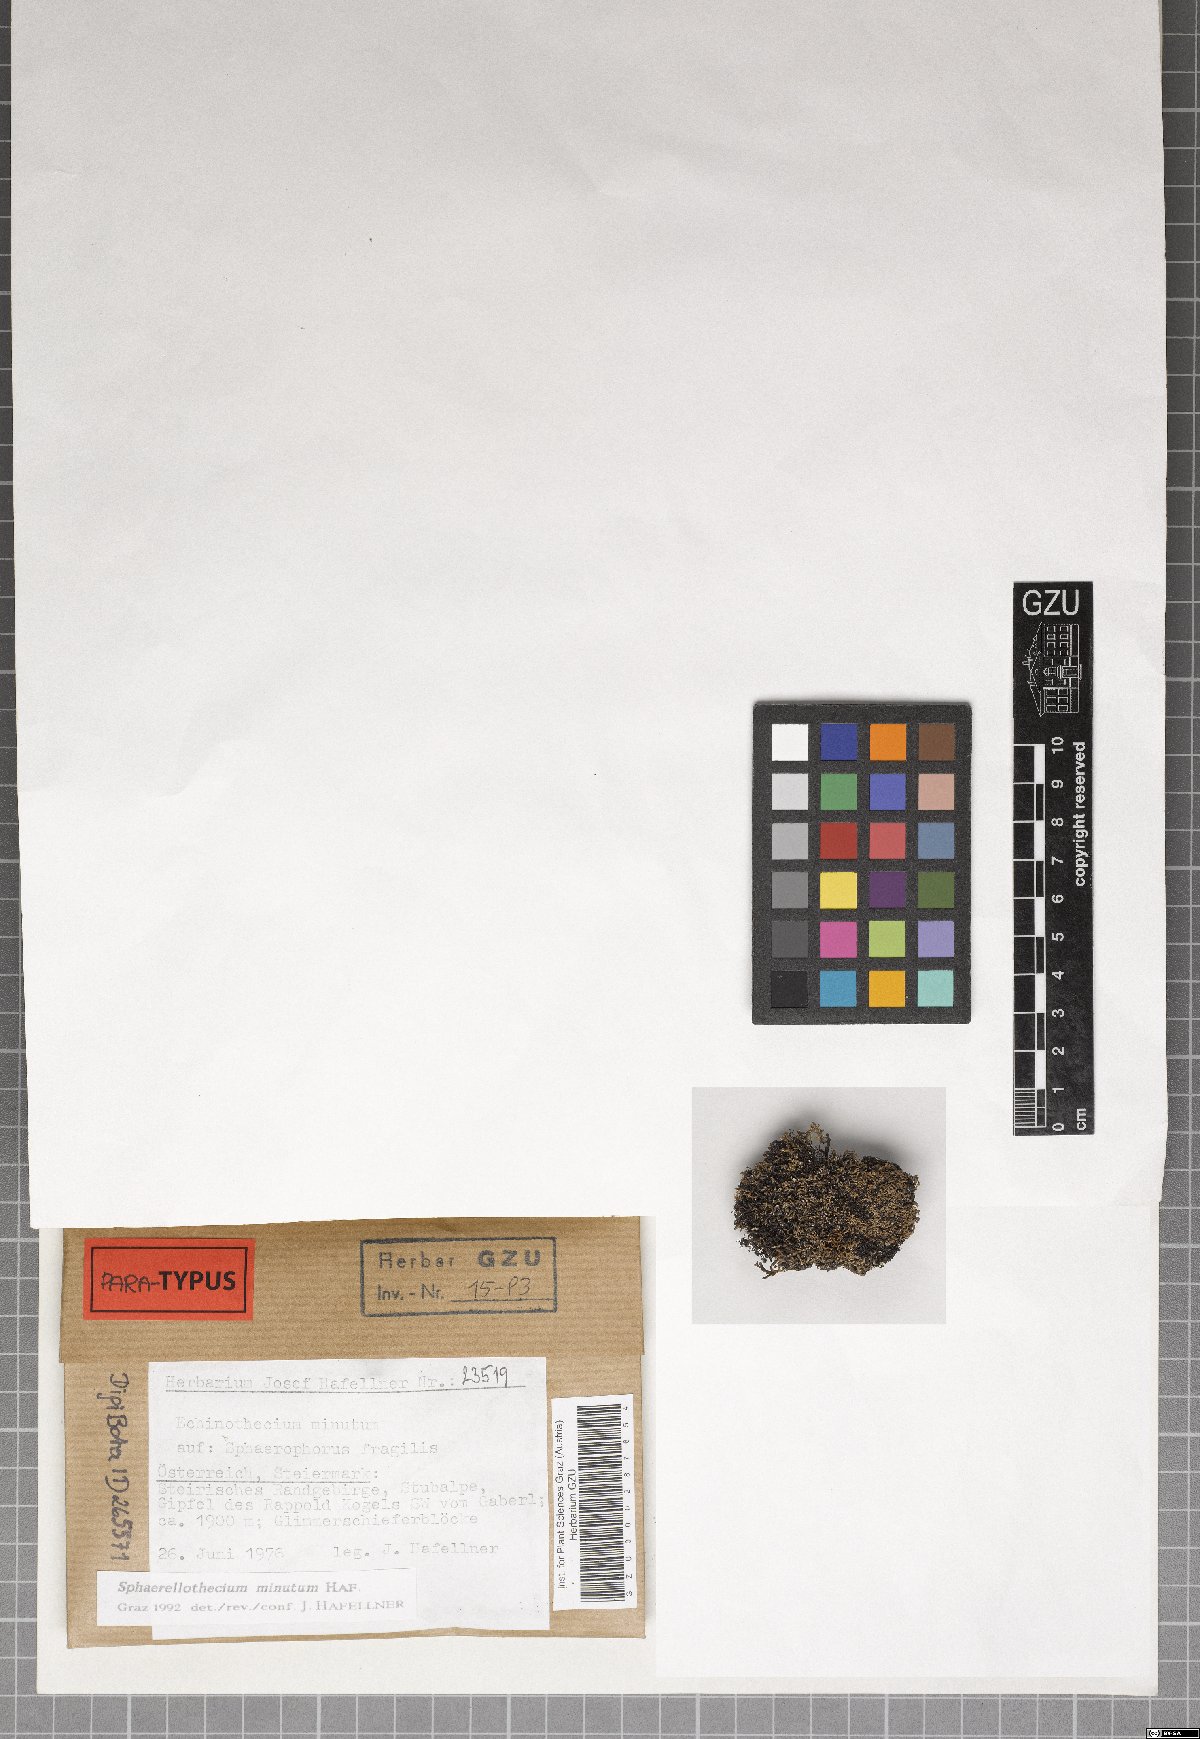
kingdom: Fungi
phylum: Ascomycota
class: Dothideomycetes
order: Mycosphaerellales
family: Mycosphaerellaceae
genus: Sphaerellothecium
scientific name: Sphaerellothecium minutum
